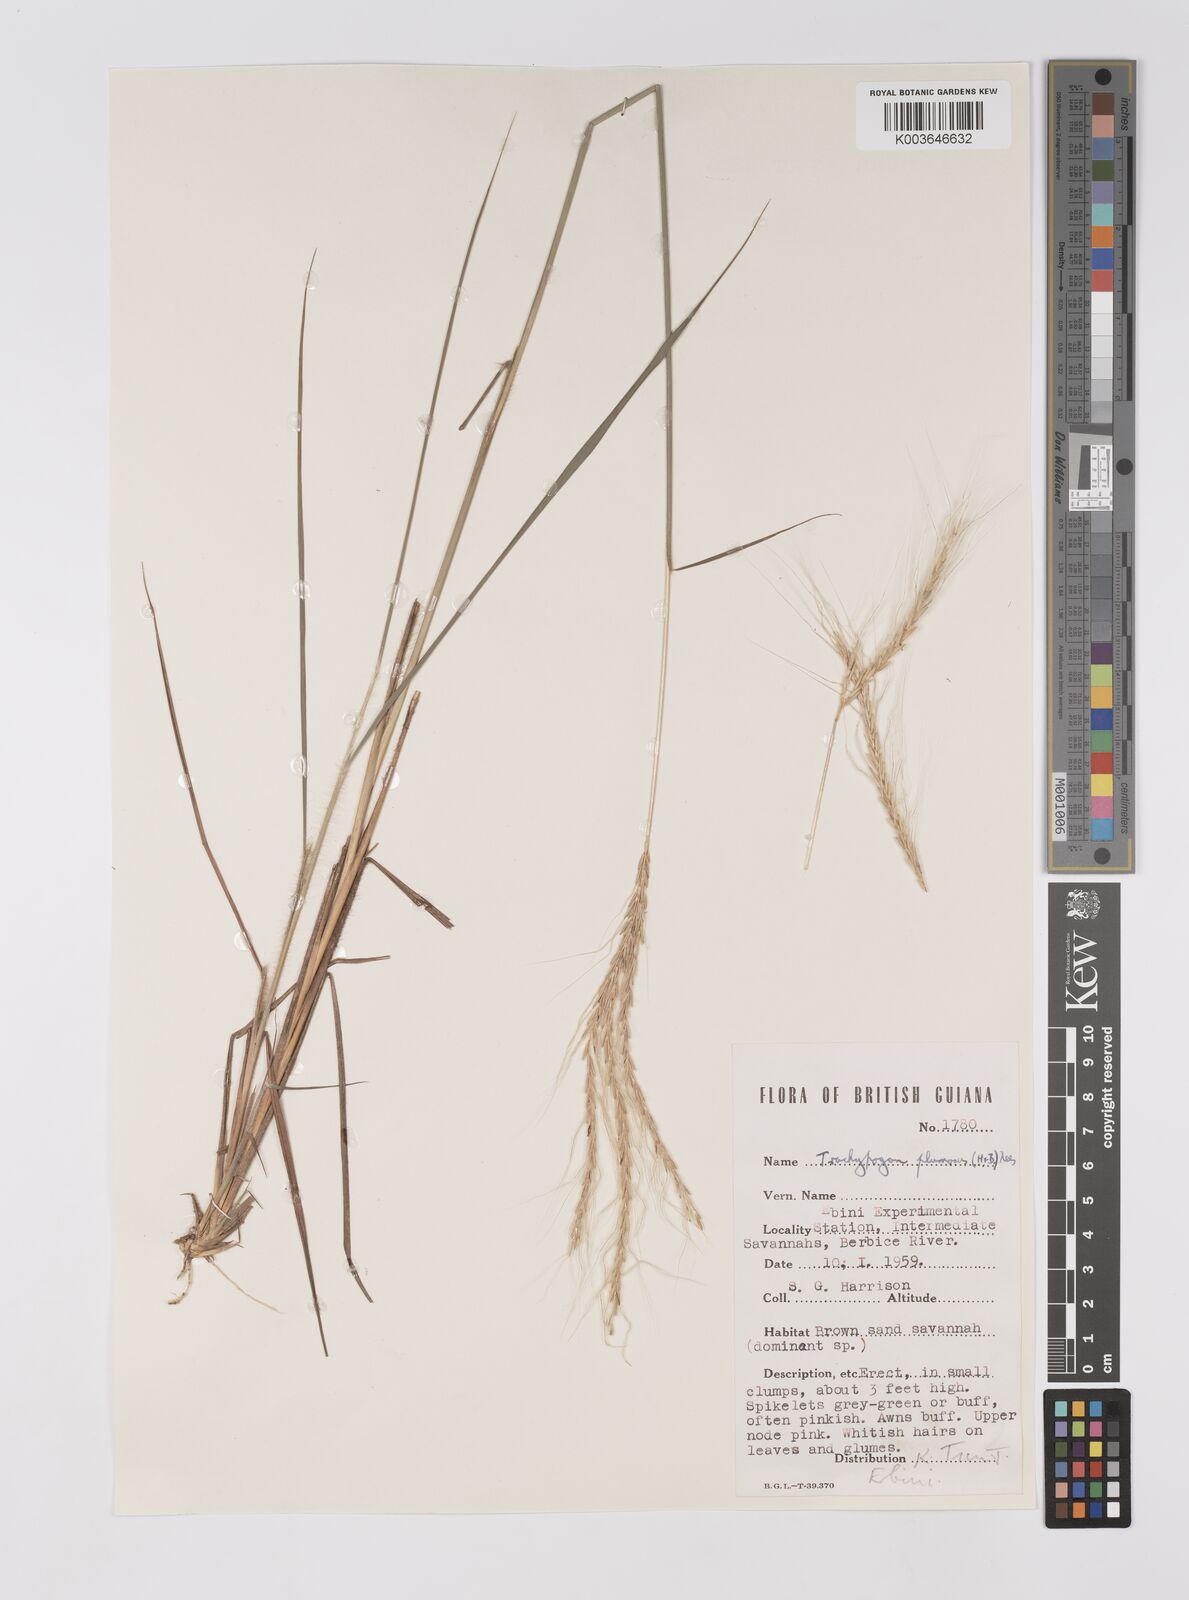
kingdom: Plantae
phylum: Tracheophyta
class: Liliopsida
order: Poales
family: Poaceae
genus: Trachypogon
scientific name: Trachypogon spicatus
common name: Crinkle-awn
